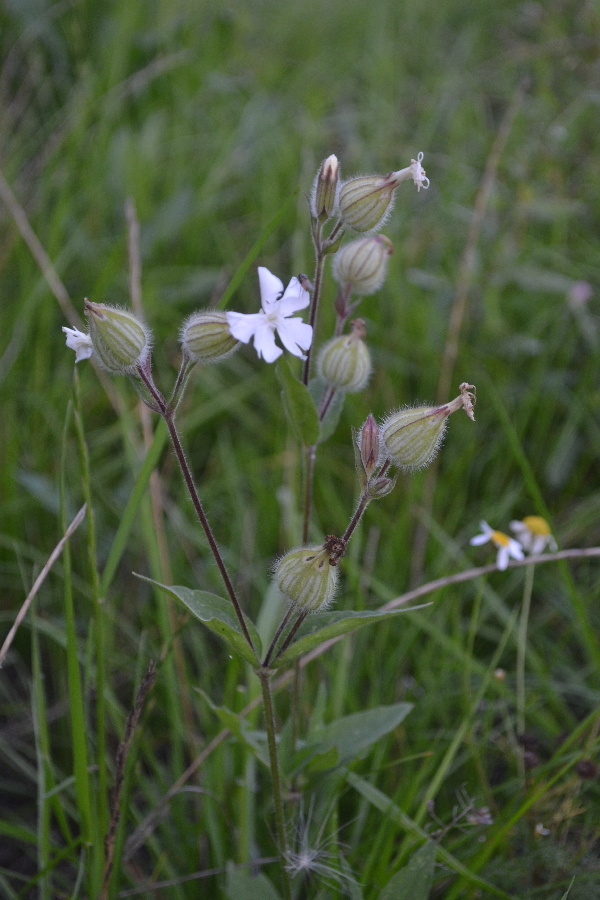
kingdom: Plantae
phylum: Tracheophyta
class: Magnoliopsida
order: Caryophyllales
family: Caryophyllaceae
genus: Silene
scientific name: Silene latifolia
